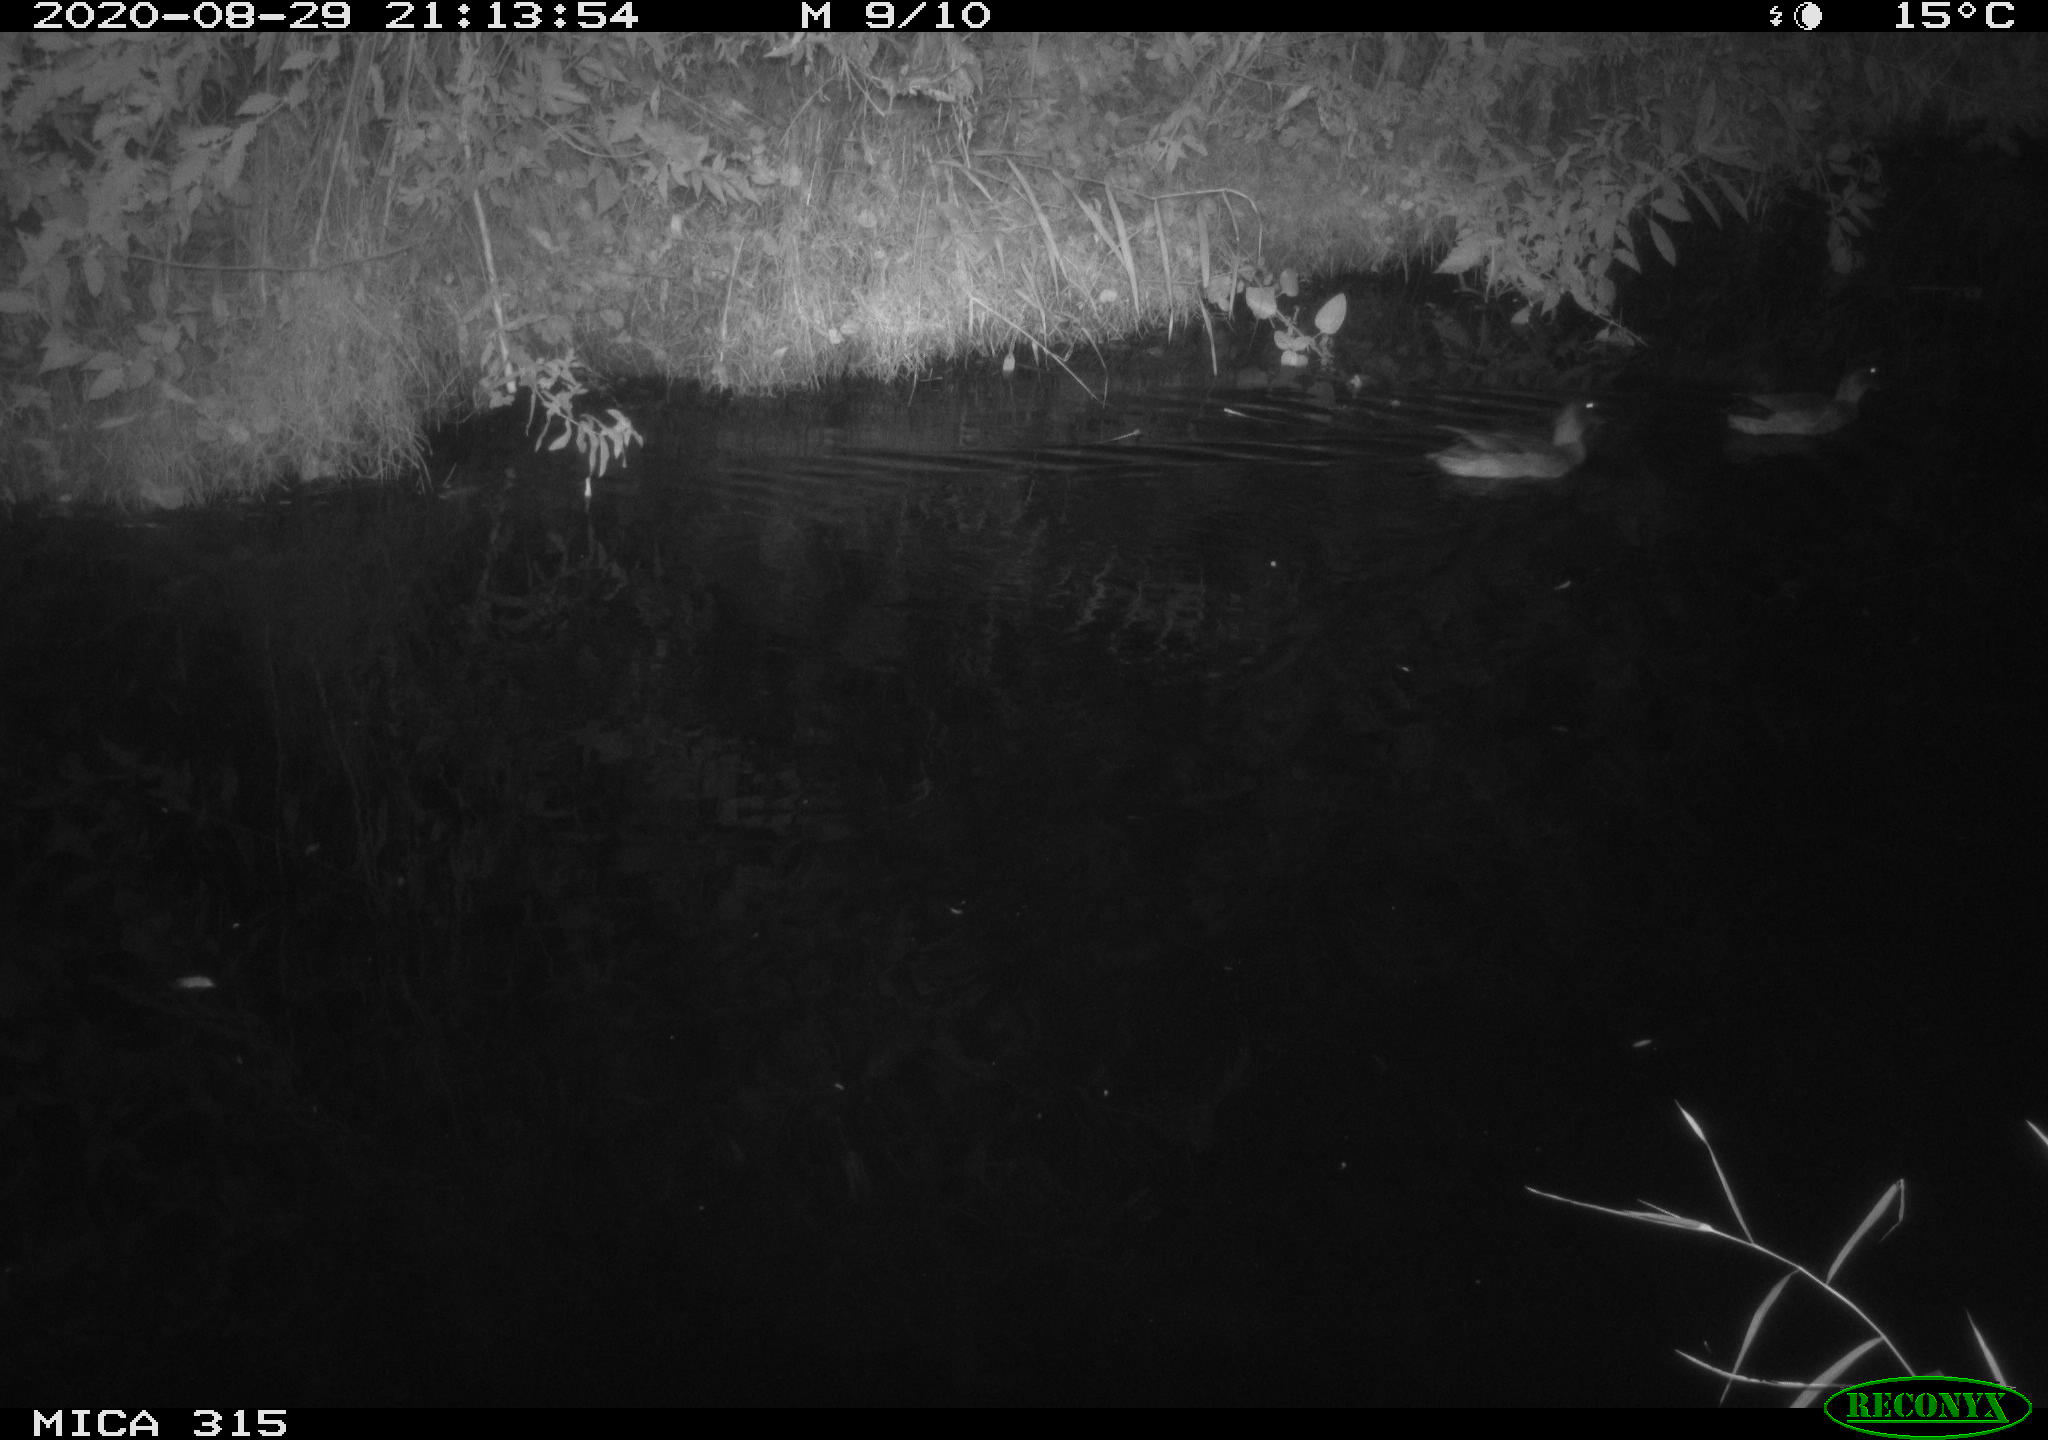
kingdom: Animalia
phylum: Chordata
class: Aves
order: Anseriformes
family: Anatidae
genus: Anas
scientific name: Anas platyrhynchos
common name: Mallard
